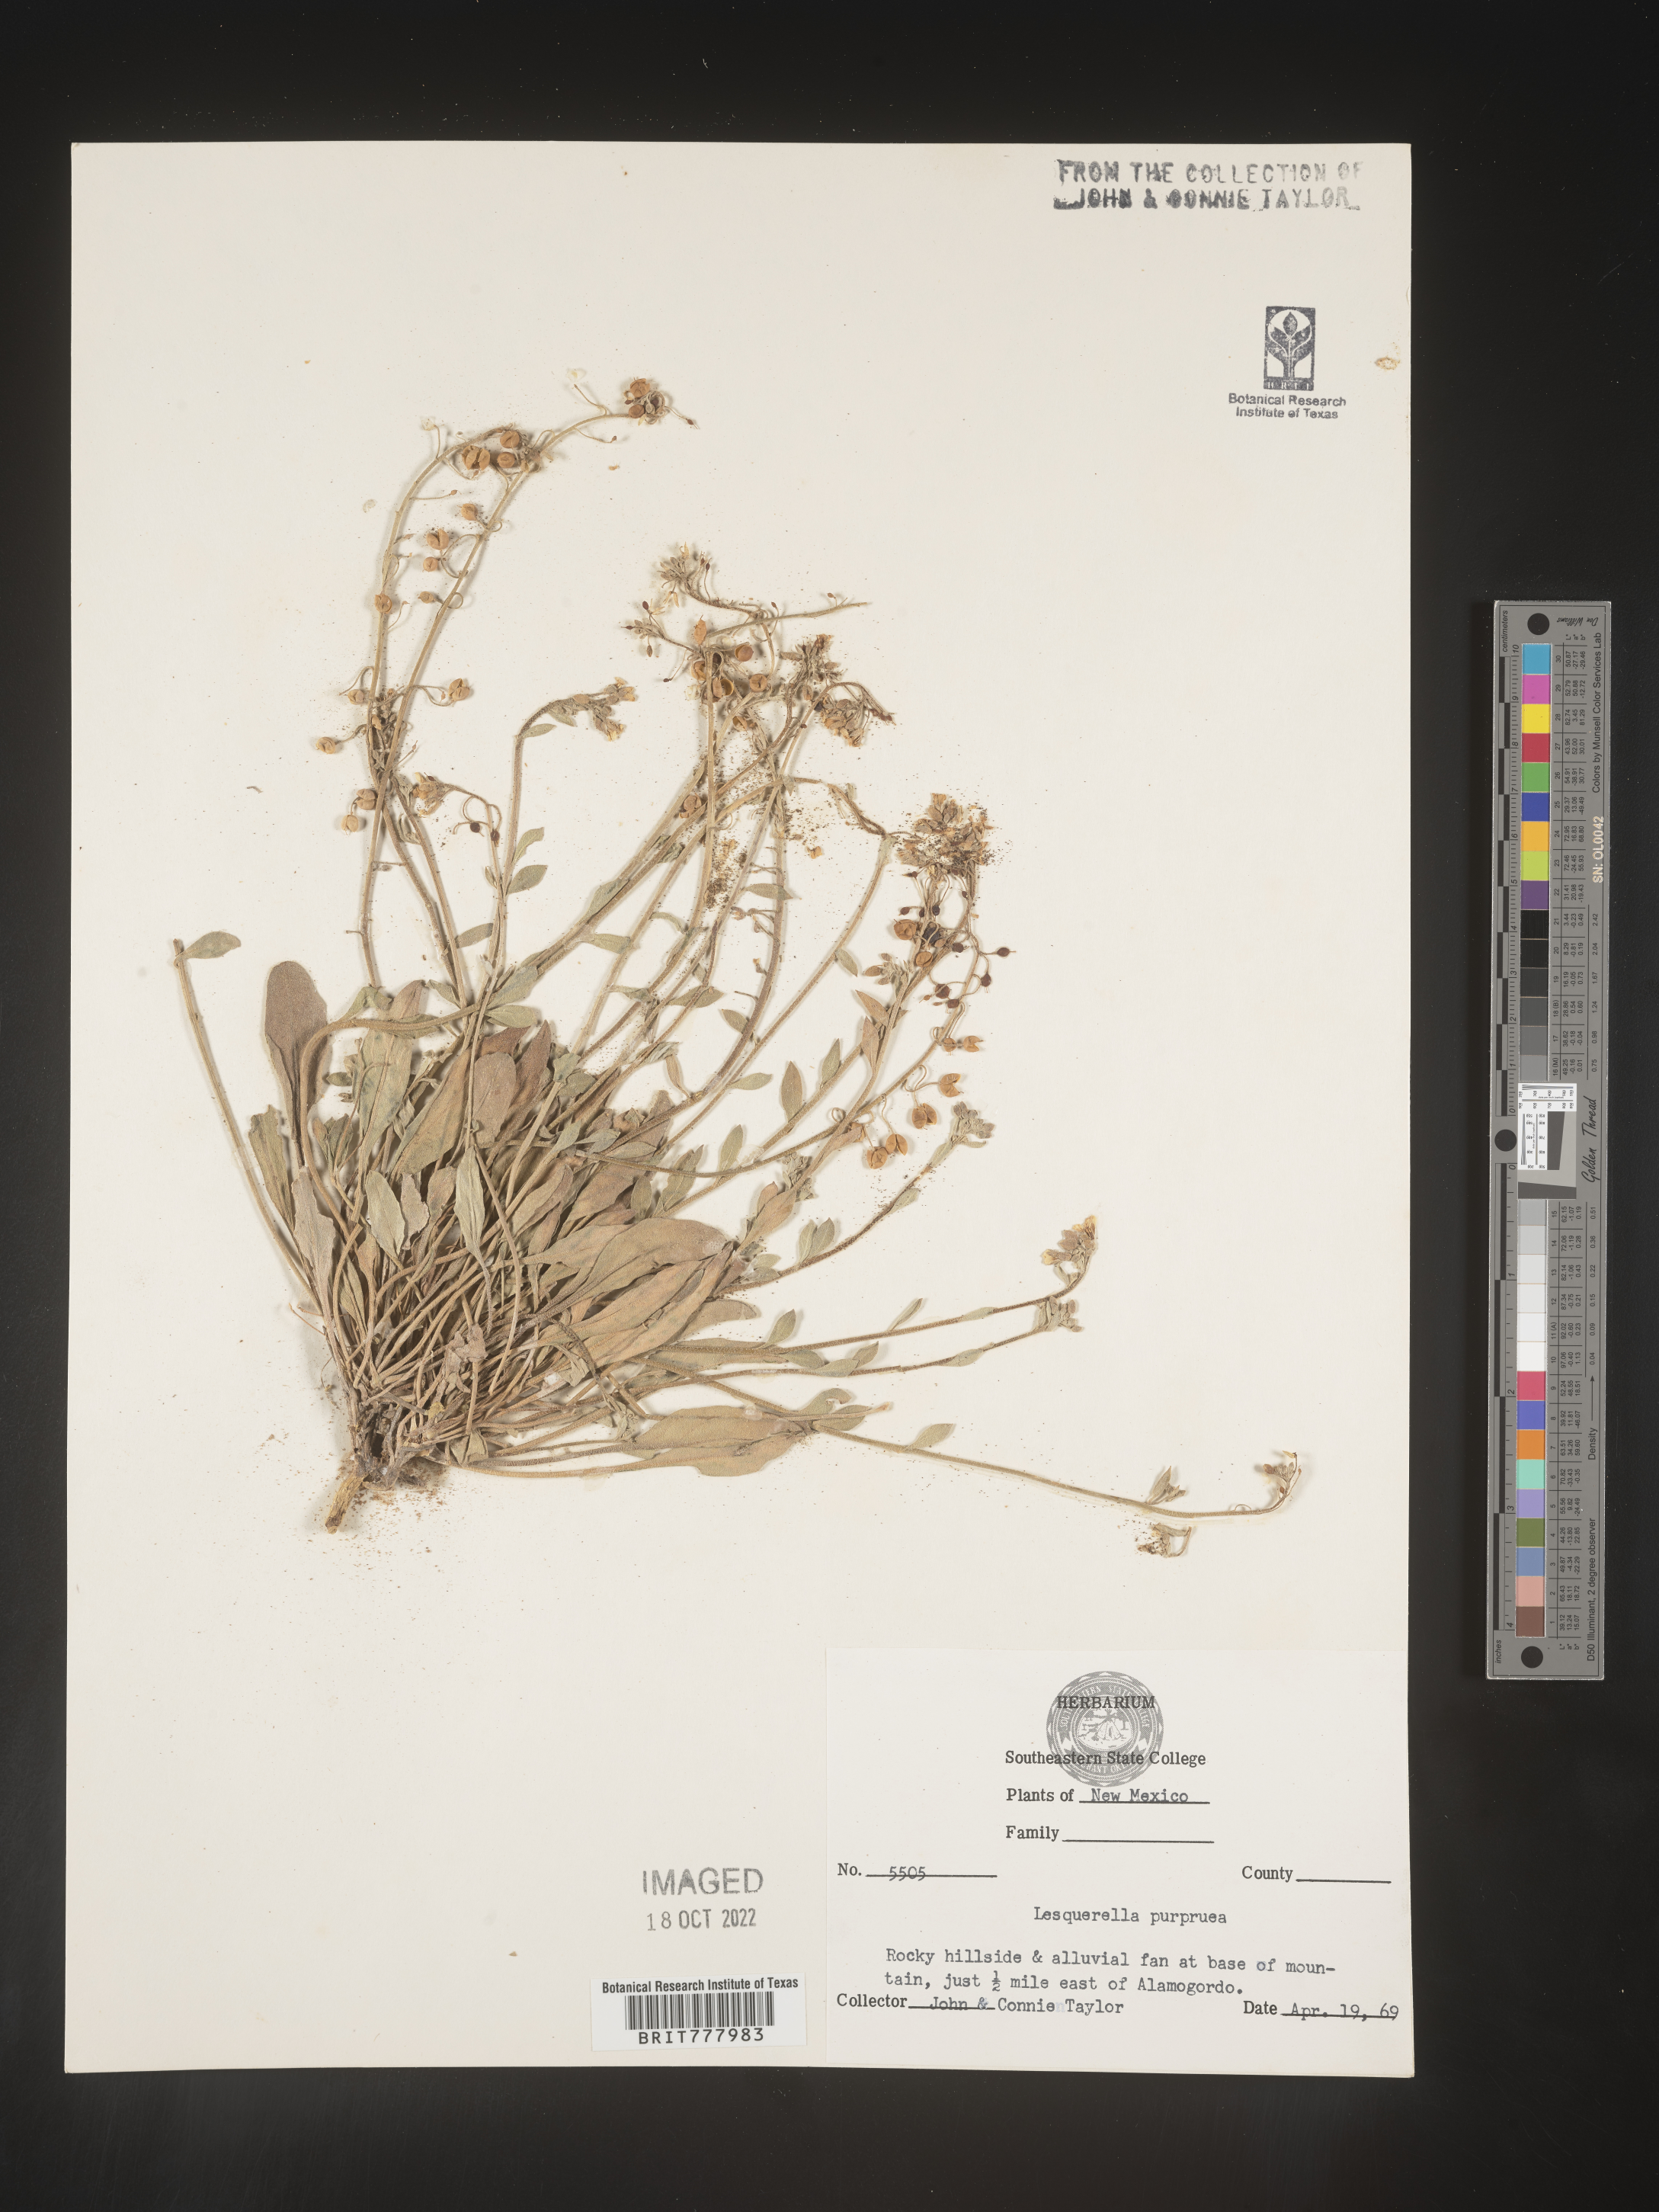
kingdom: Chromista
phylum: Cercozoa
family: Psammonobiotidae
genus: Lesquerella
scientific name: Lesquerella
